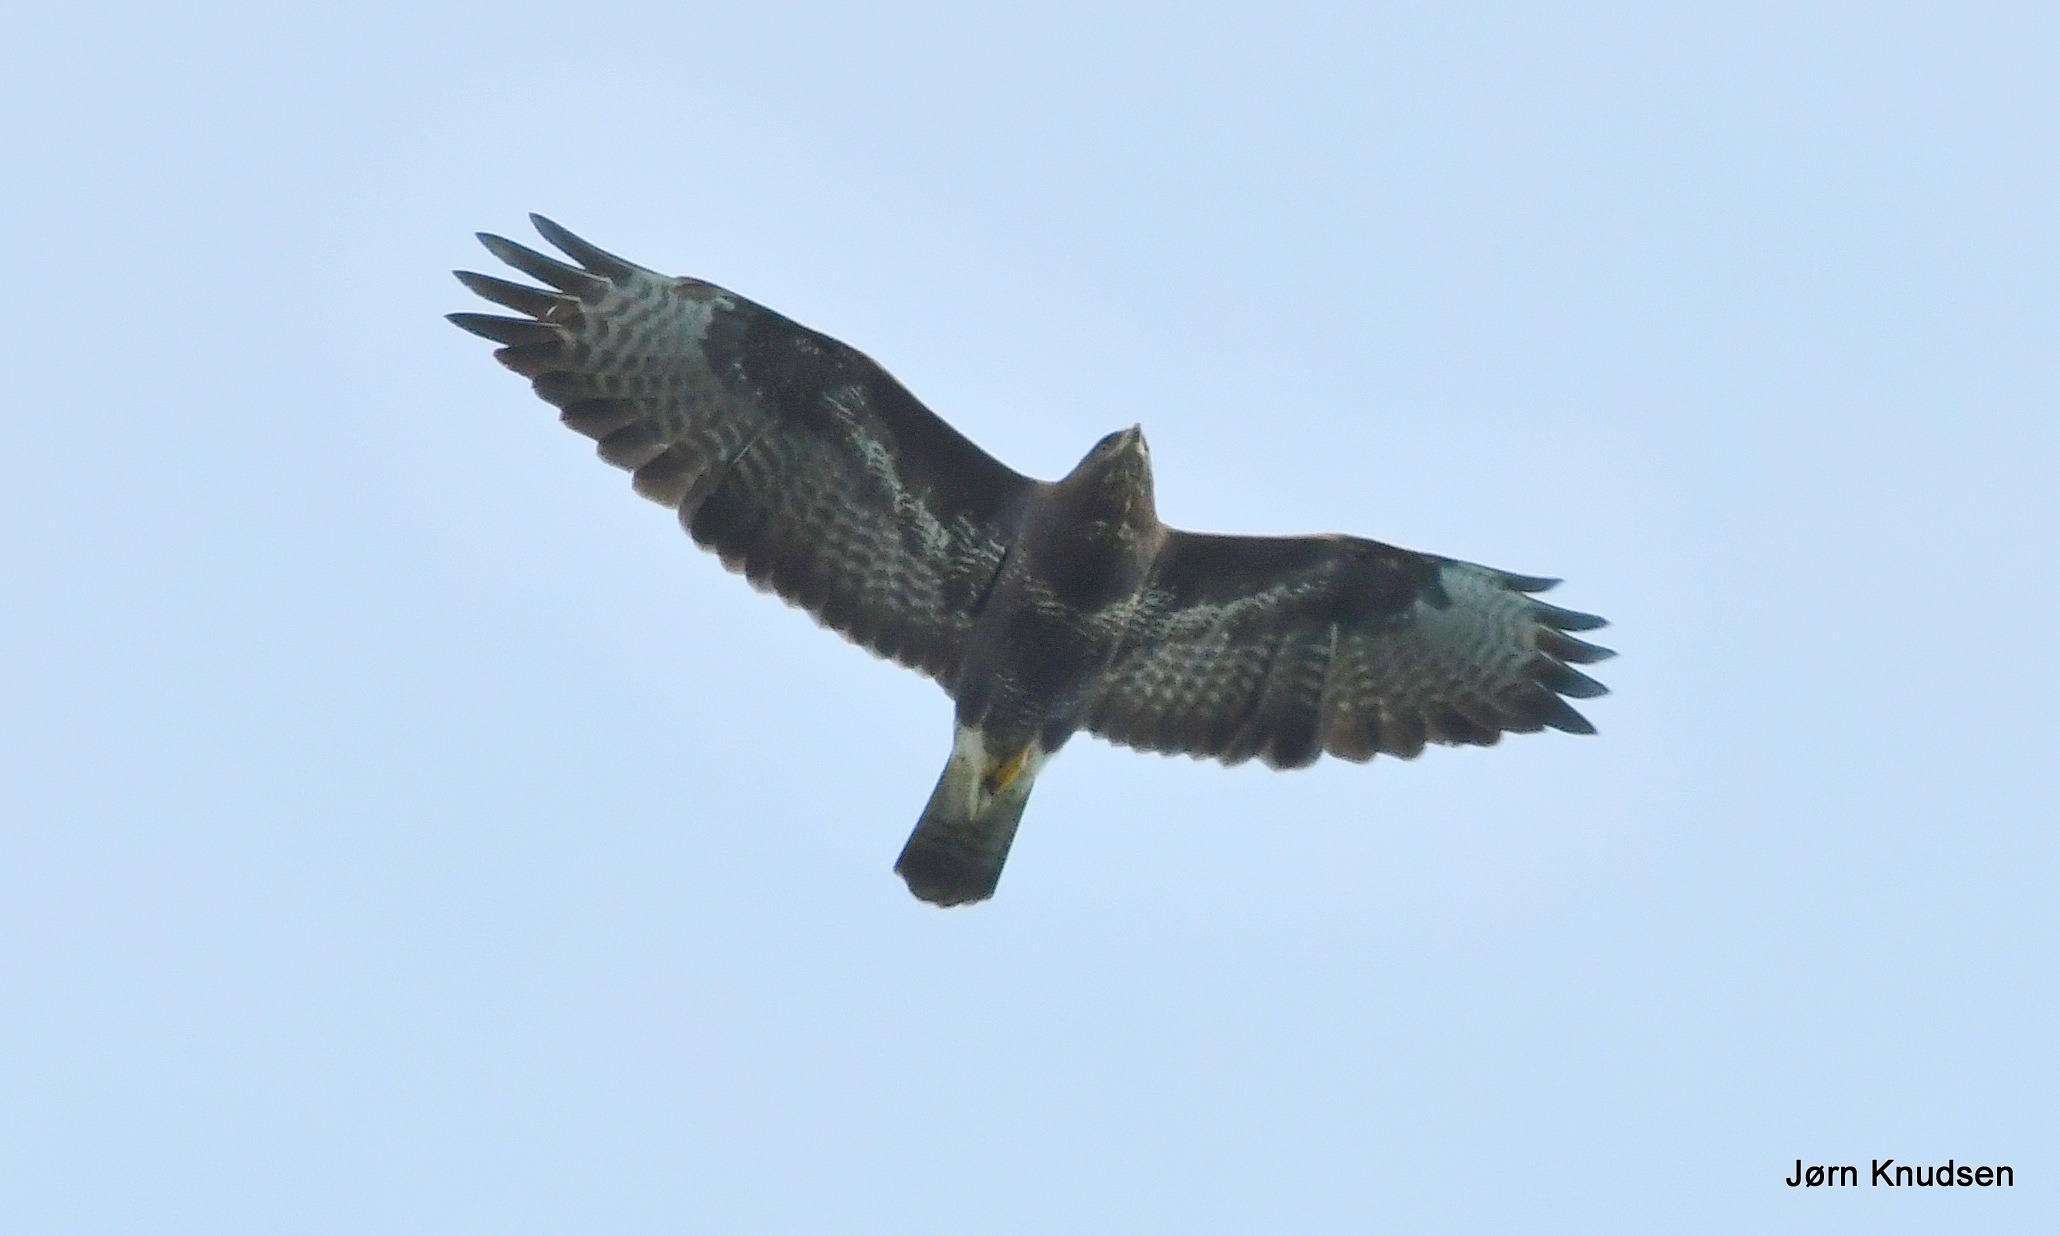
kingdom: Animalia
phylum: Chordata
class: Aves
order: Accipitriformes
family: Accipitridae
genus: Buteo
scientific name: Buteo buteo
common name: Musvåge
